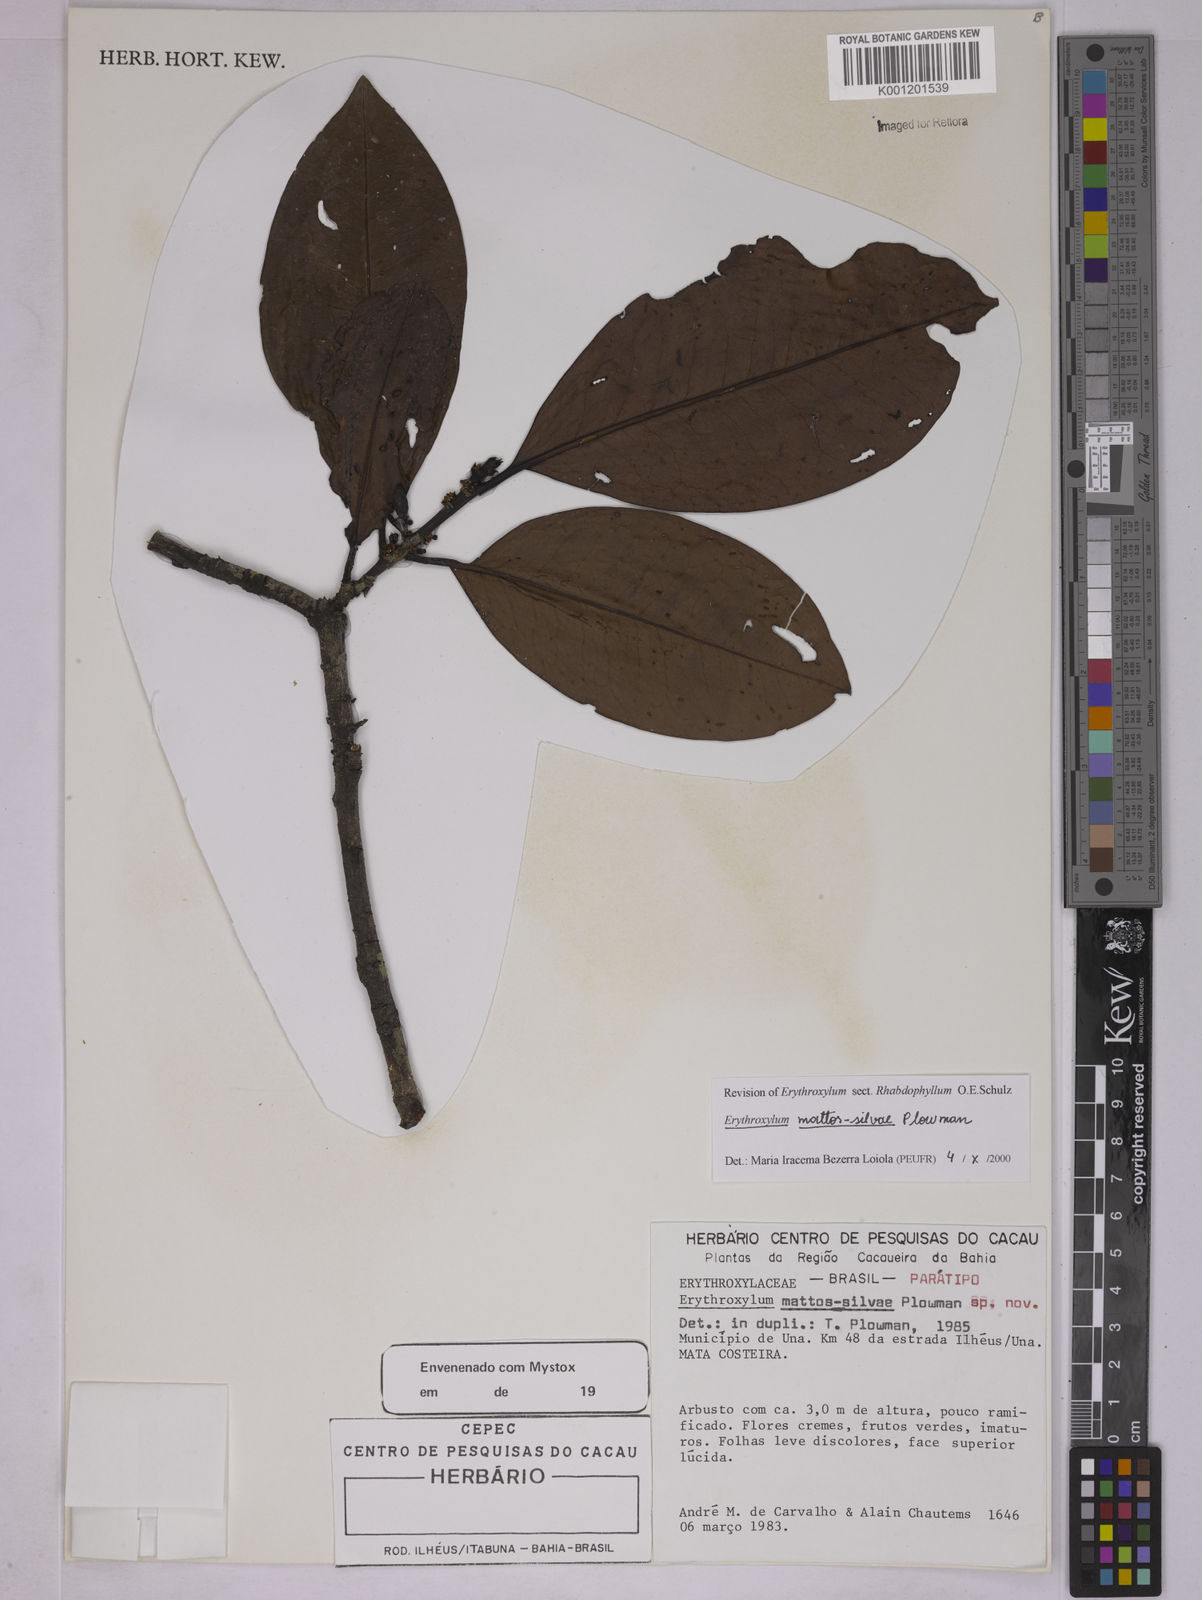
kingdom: Plantae
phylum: Tracheophyta
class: Magnoliopsida
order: Malpighiales
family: Erythroxylaceae
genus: Erythroxylum
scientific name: Erythroxylum mattos-silvae
